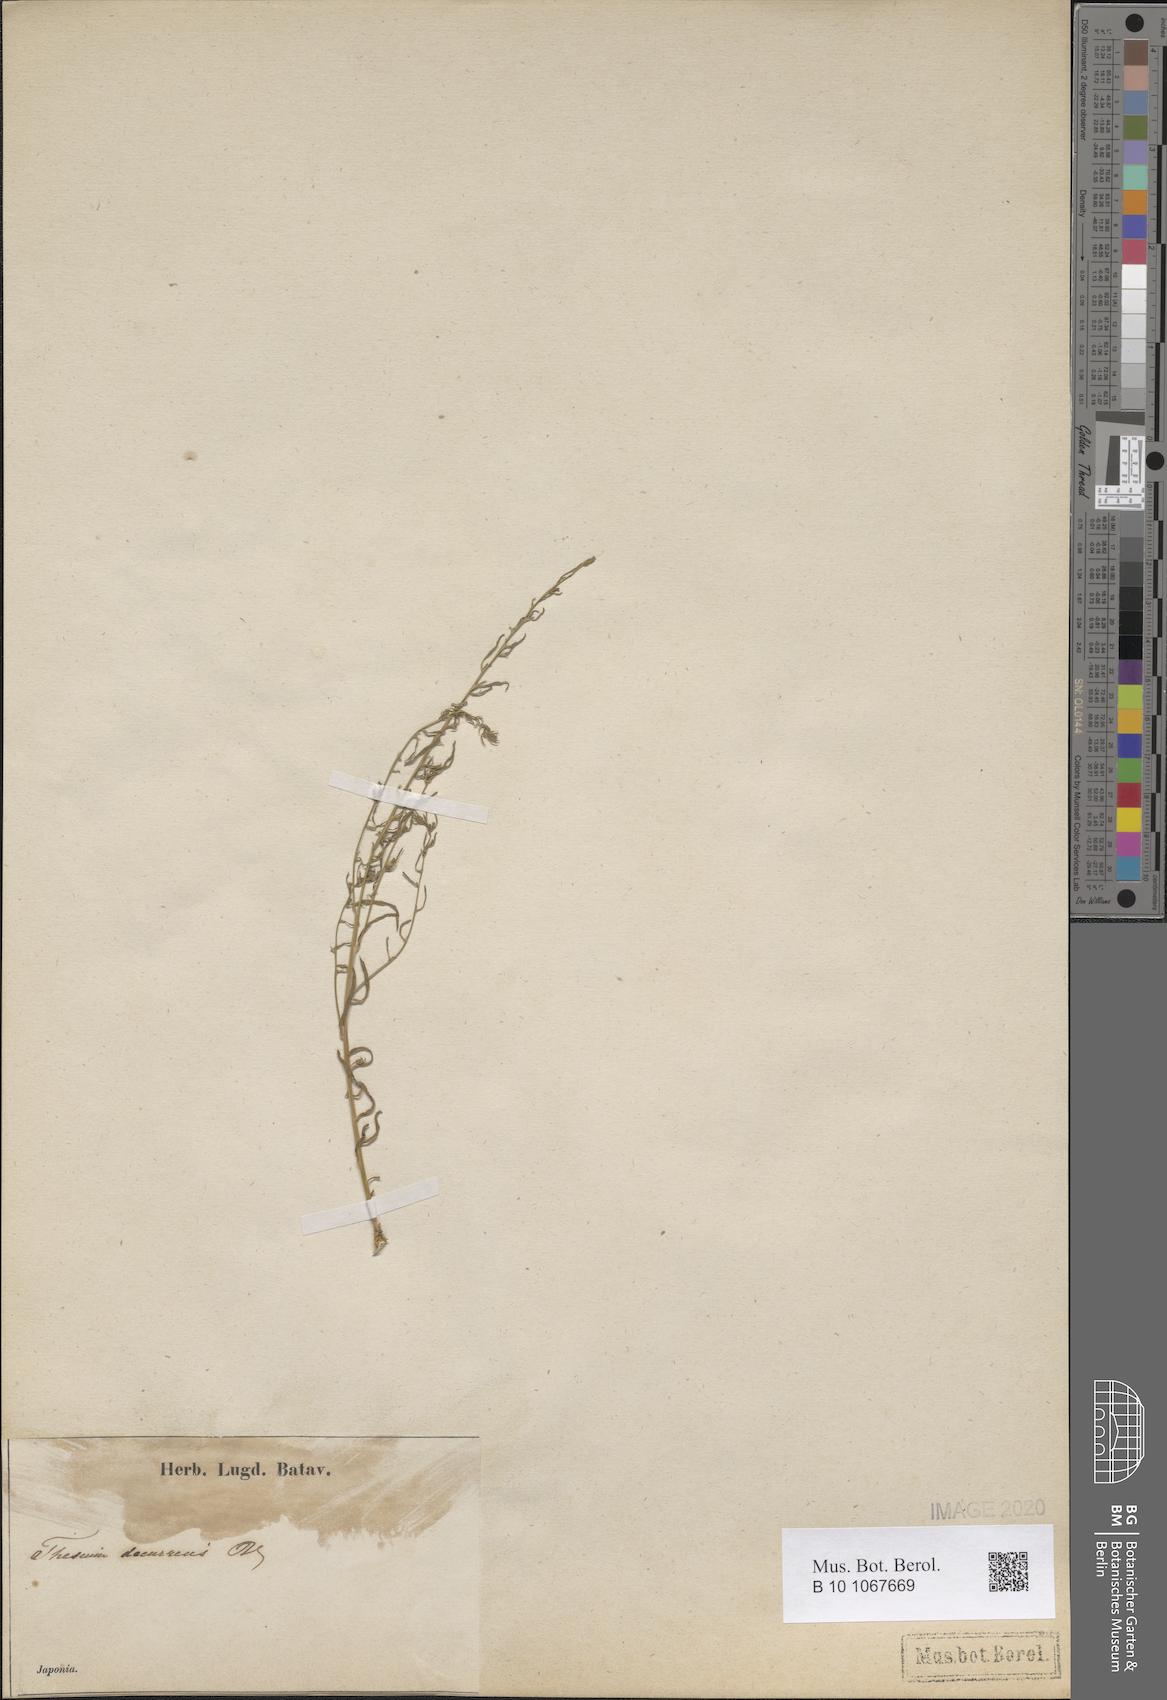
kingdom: Plantae
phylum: Tracheophyta
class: Magnoliopsida
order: Santalales
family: Thesiaceae
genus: Thesium
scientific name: Thesium chinense
